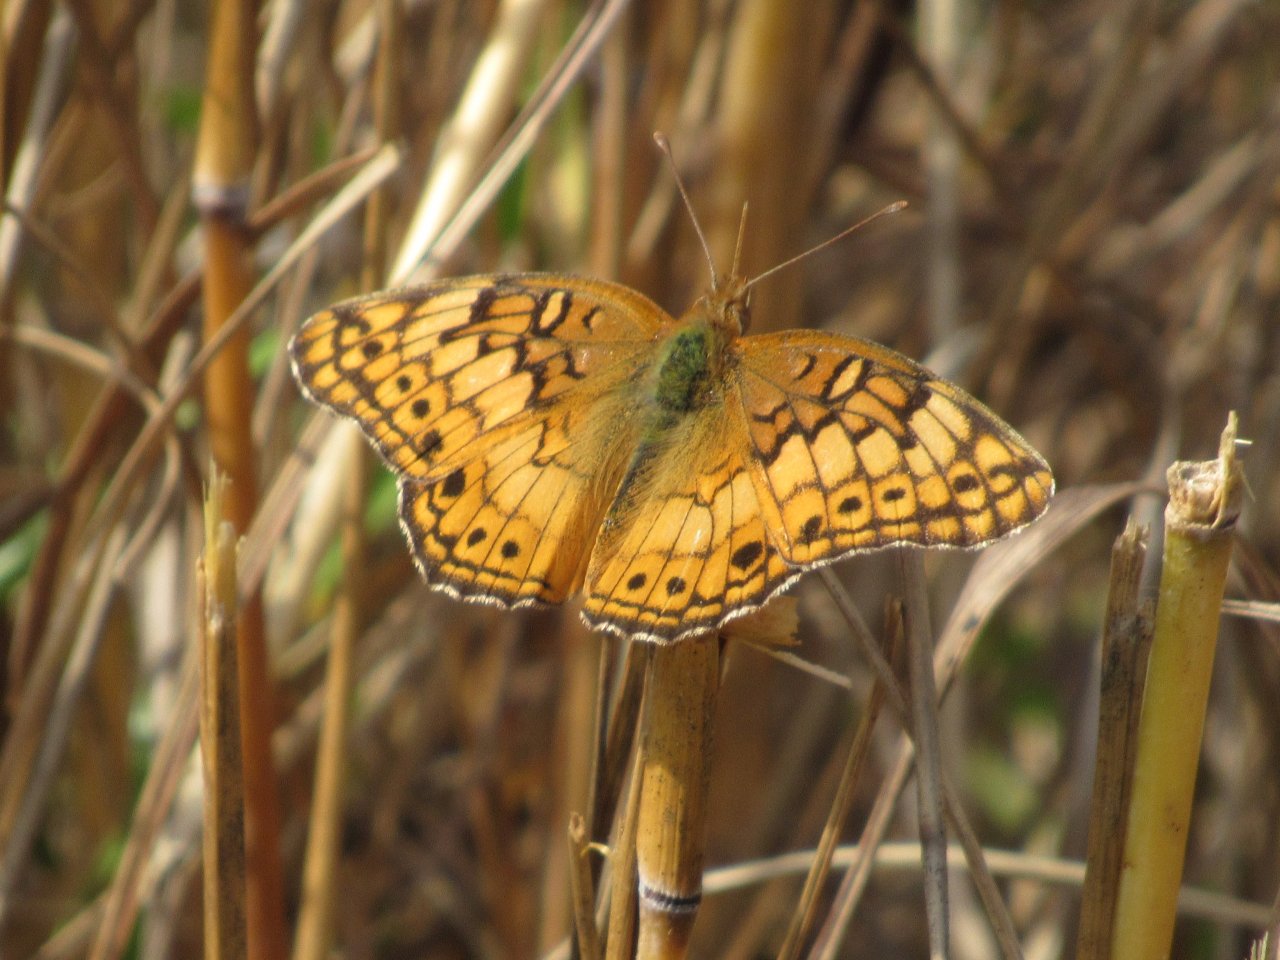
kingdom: Animalia
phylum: Arthropoda
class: Insecta
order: Lepidoptera
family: Nymphalidae
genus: Euptoieta
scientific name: Euptoieta claudia
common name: Variegated Fritillary
